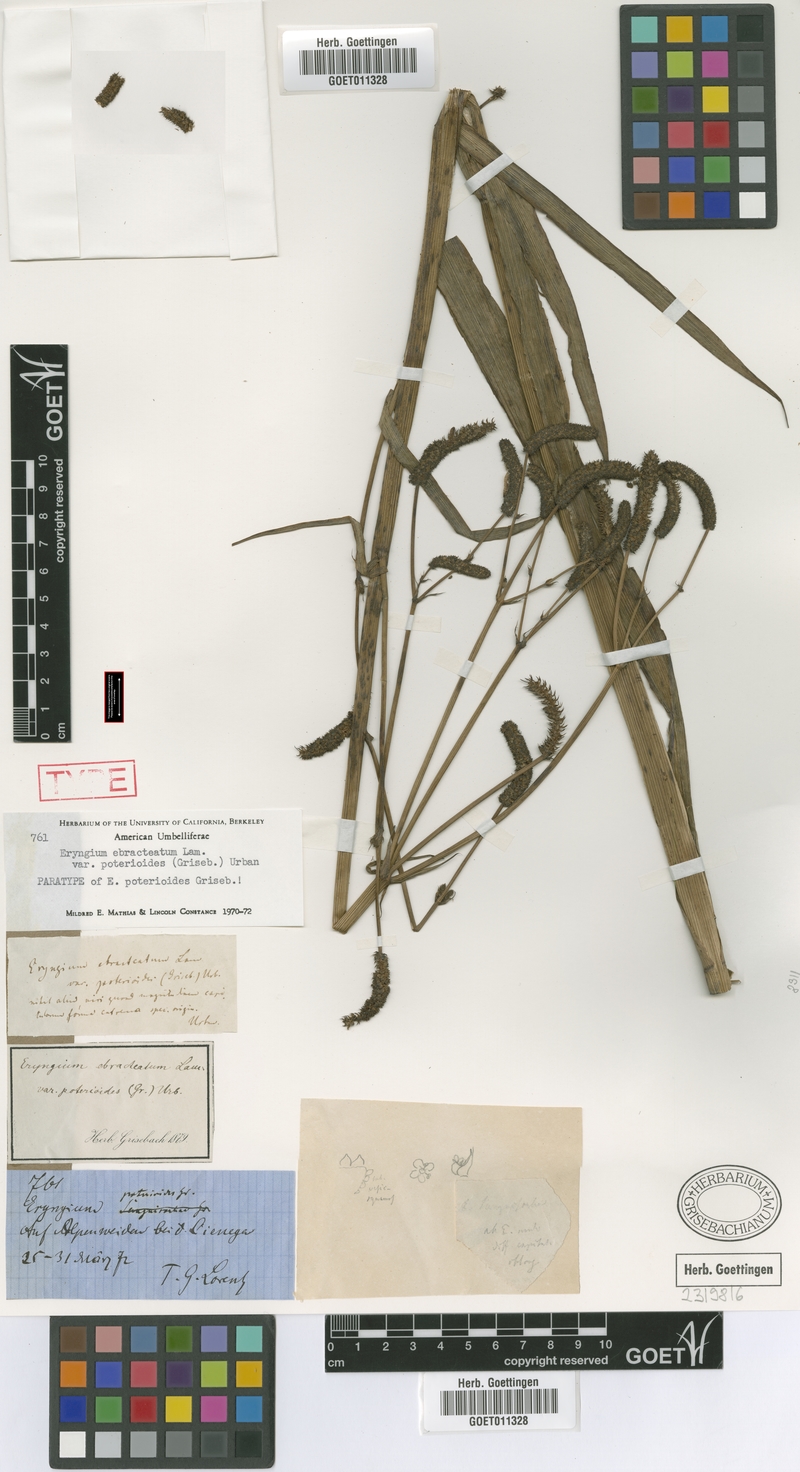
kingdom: Plantae
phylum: Tracheophyta
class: Magnoliopsida
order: Apiales
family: Apiaceae
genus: Eryngium
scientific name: Eryngium ebracteatum
